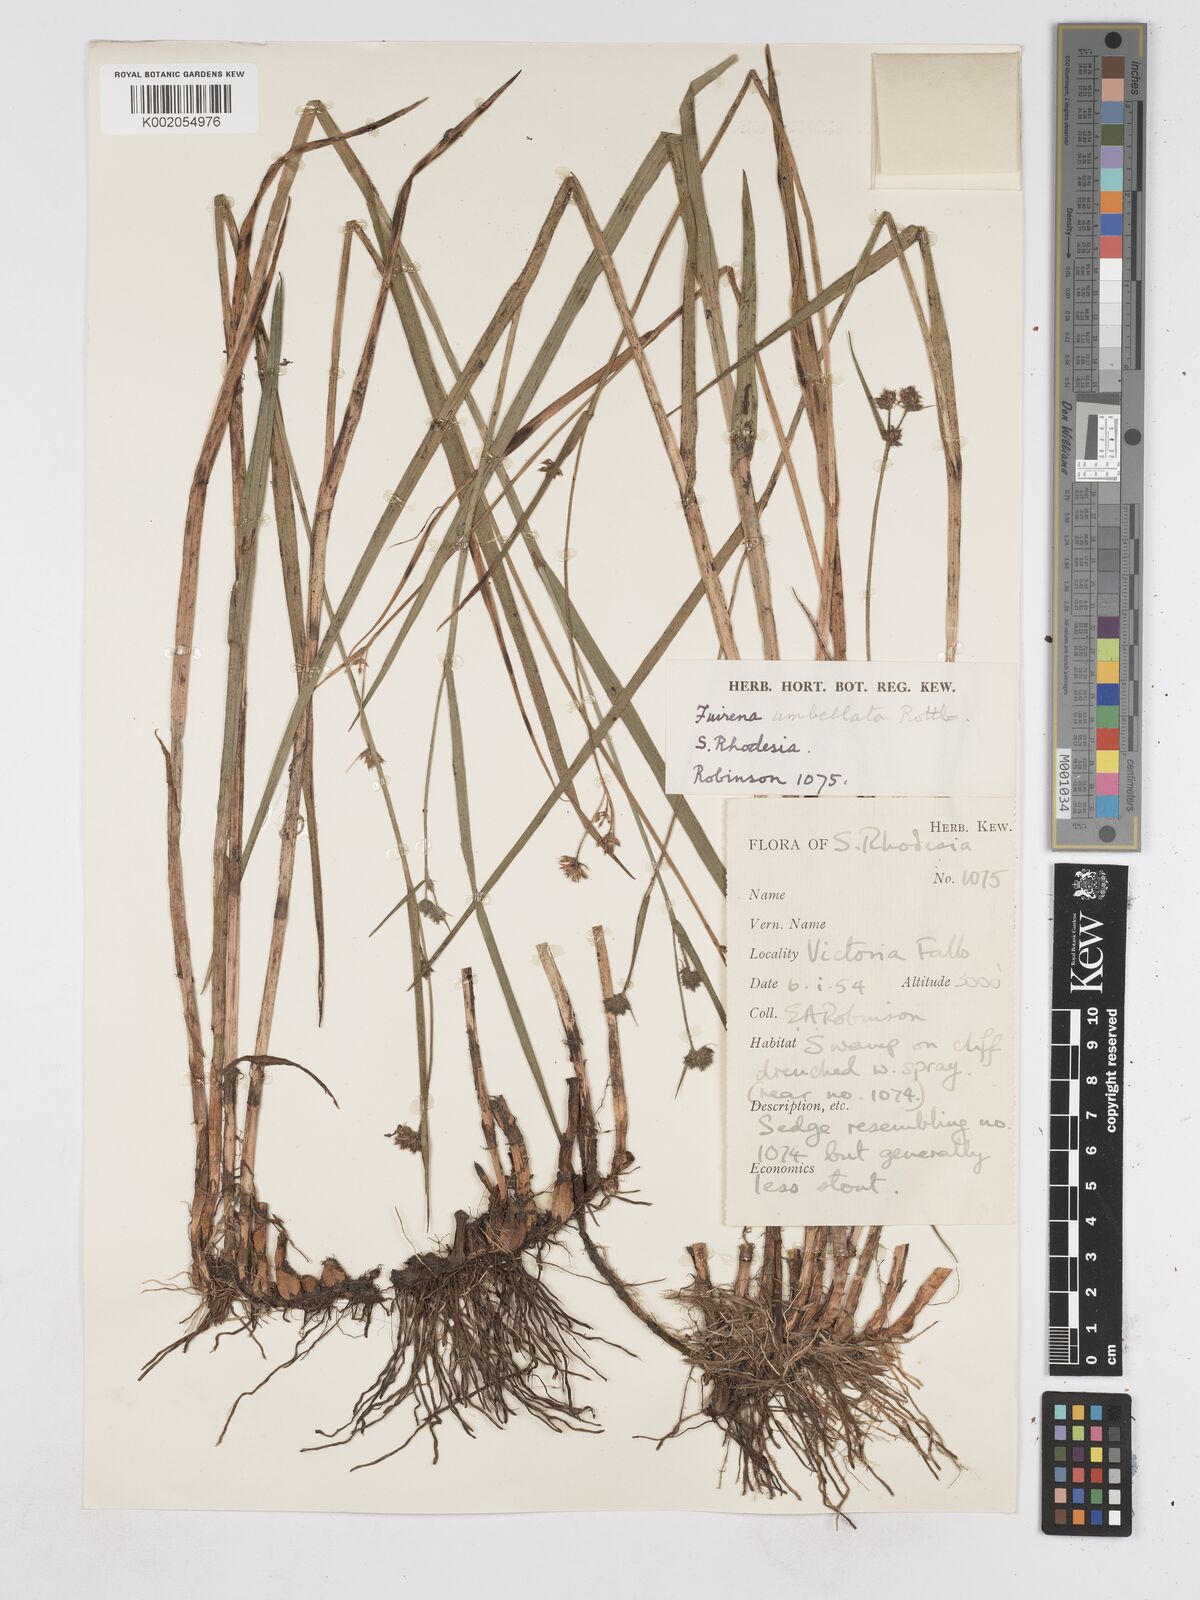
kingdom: Plantae
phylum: Tracheophyta
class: Liliopsida
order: Poales
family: Cyperaceae
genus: Fuirena
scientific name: Fuirena umbellata
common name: Yefen
